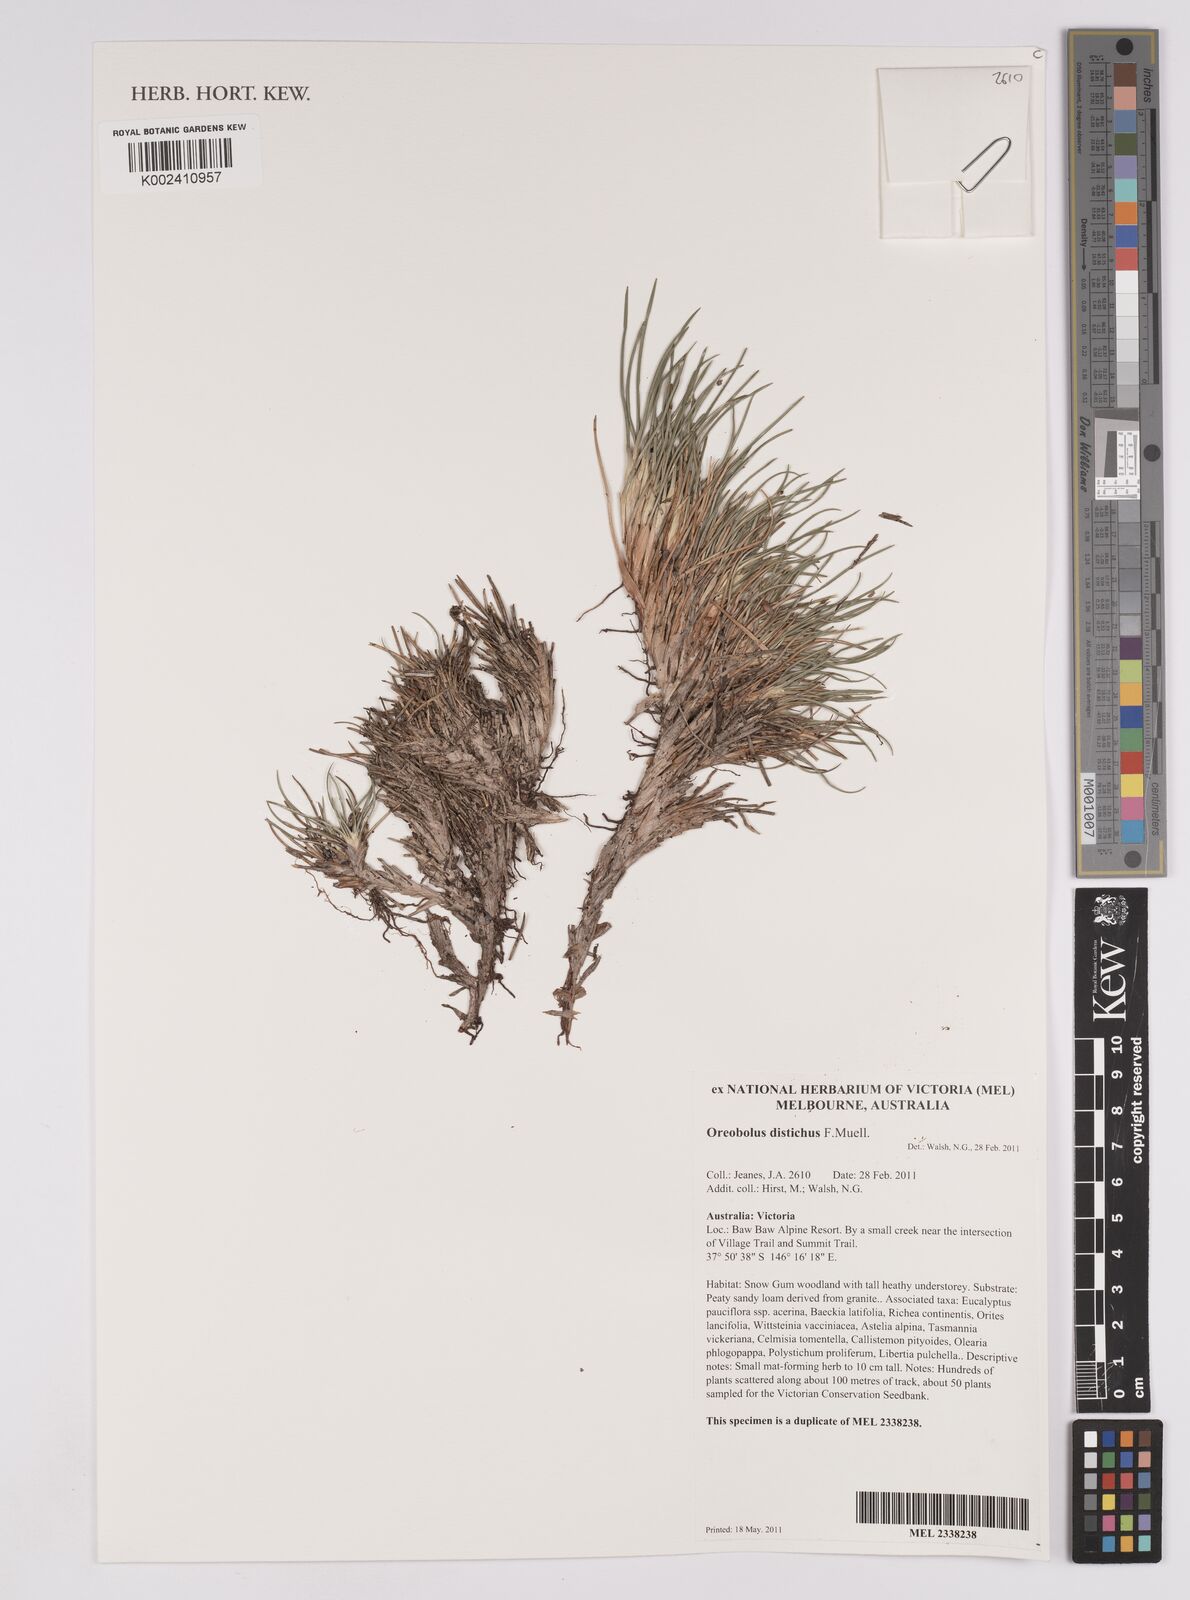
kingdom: Plantae
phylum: Tracheophyta
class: Liliopsida
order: Poales
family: Cyperaceae
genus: Oreobolus
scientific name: Oreobolus distichus
